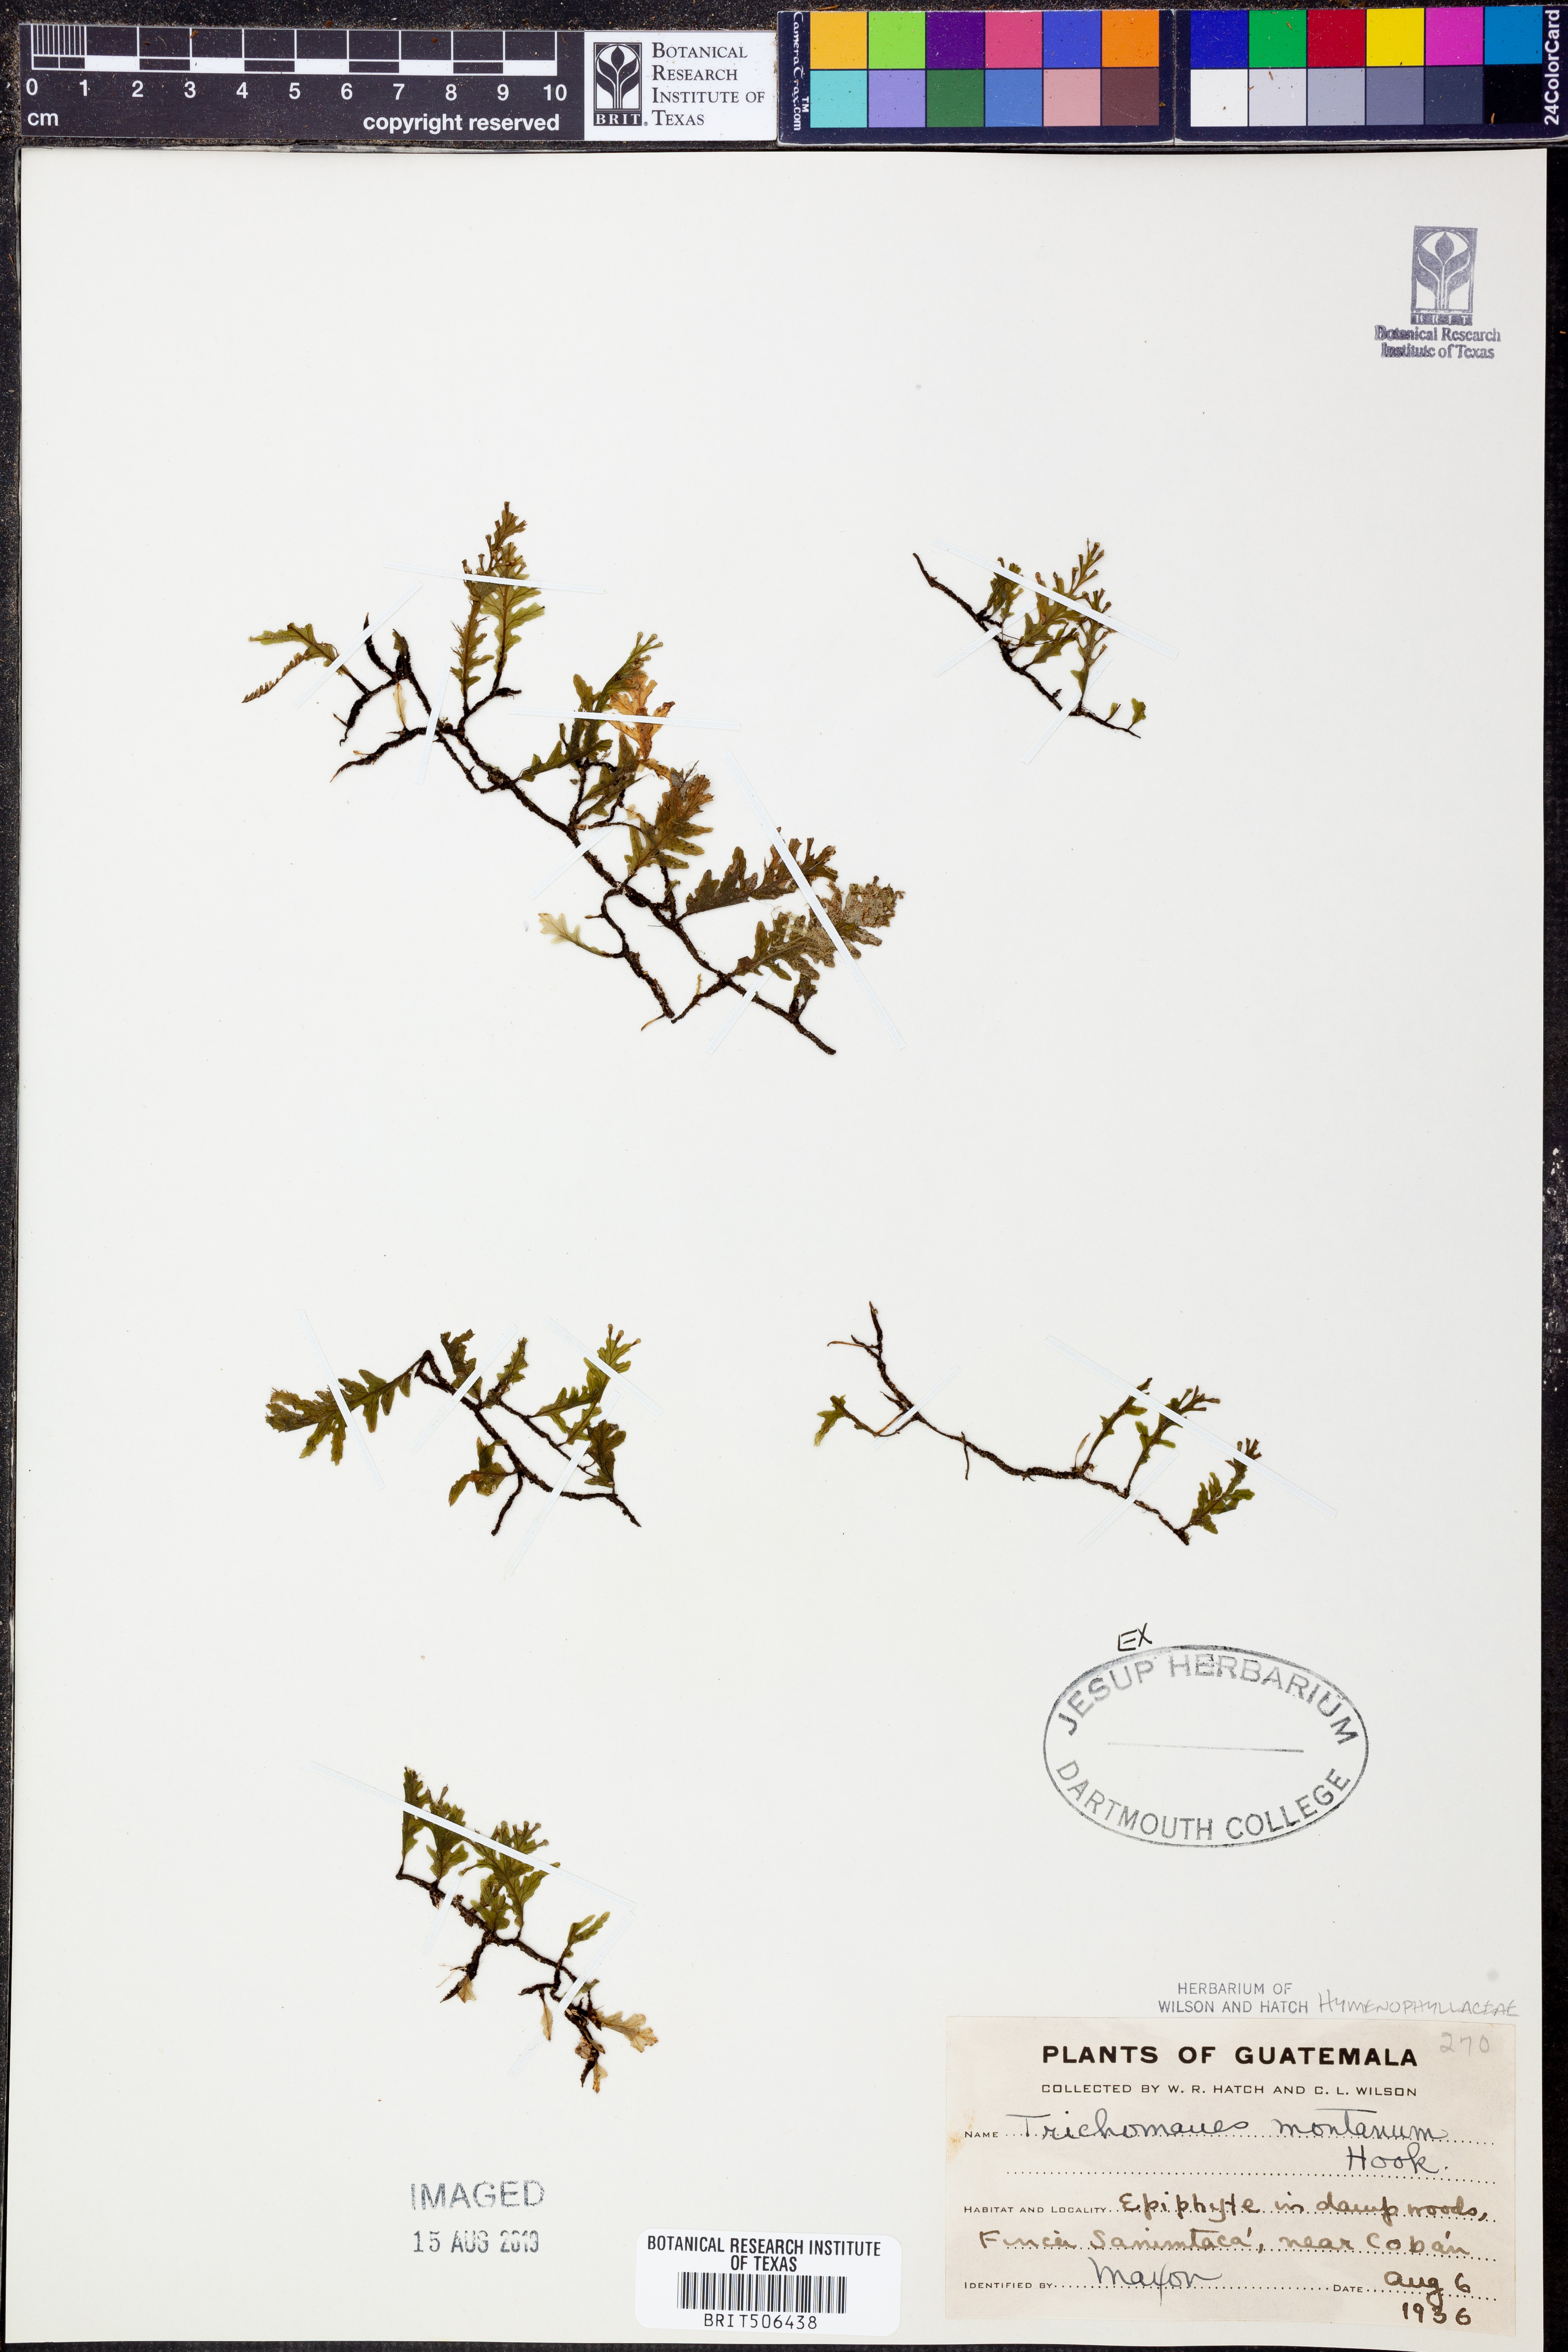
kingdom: Plantae
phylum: Tracheophyta
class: Polypodiopsida
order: Hymenophyllales
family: Hymenophyllaceae
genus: Didymoglossum
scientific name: Didymoglossum
